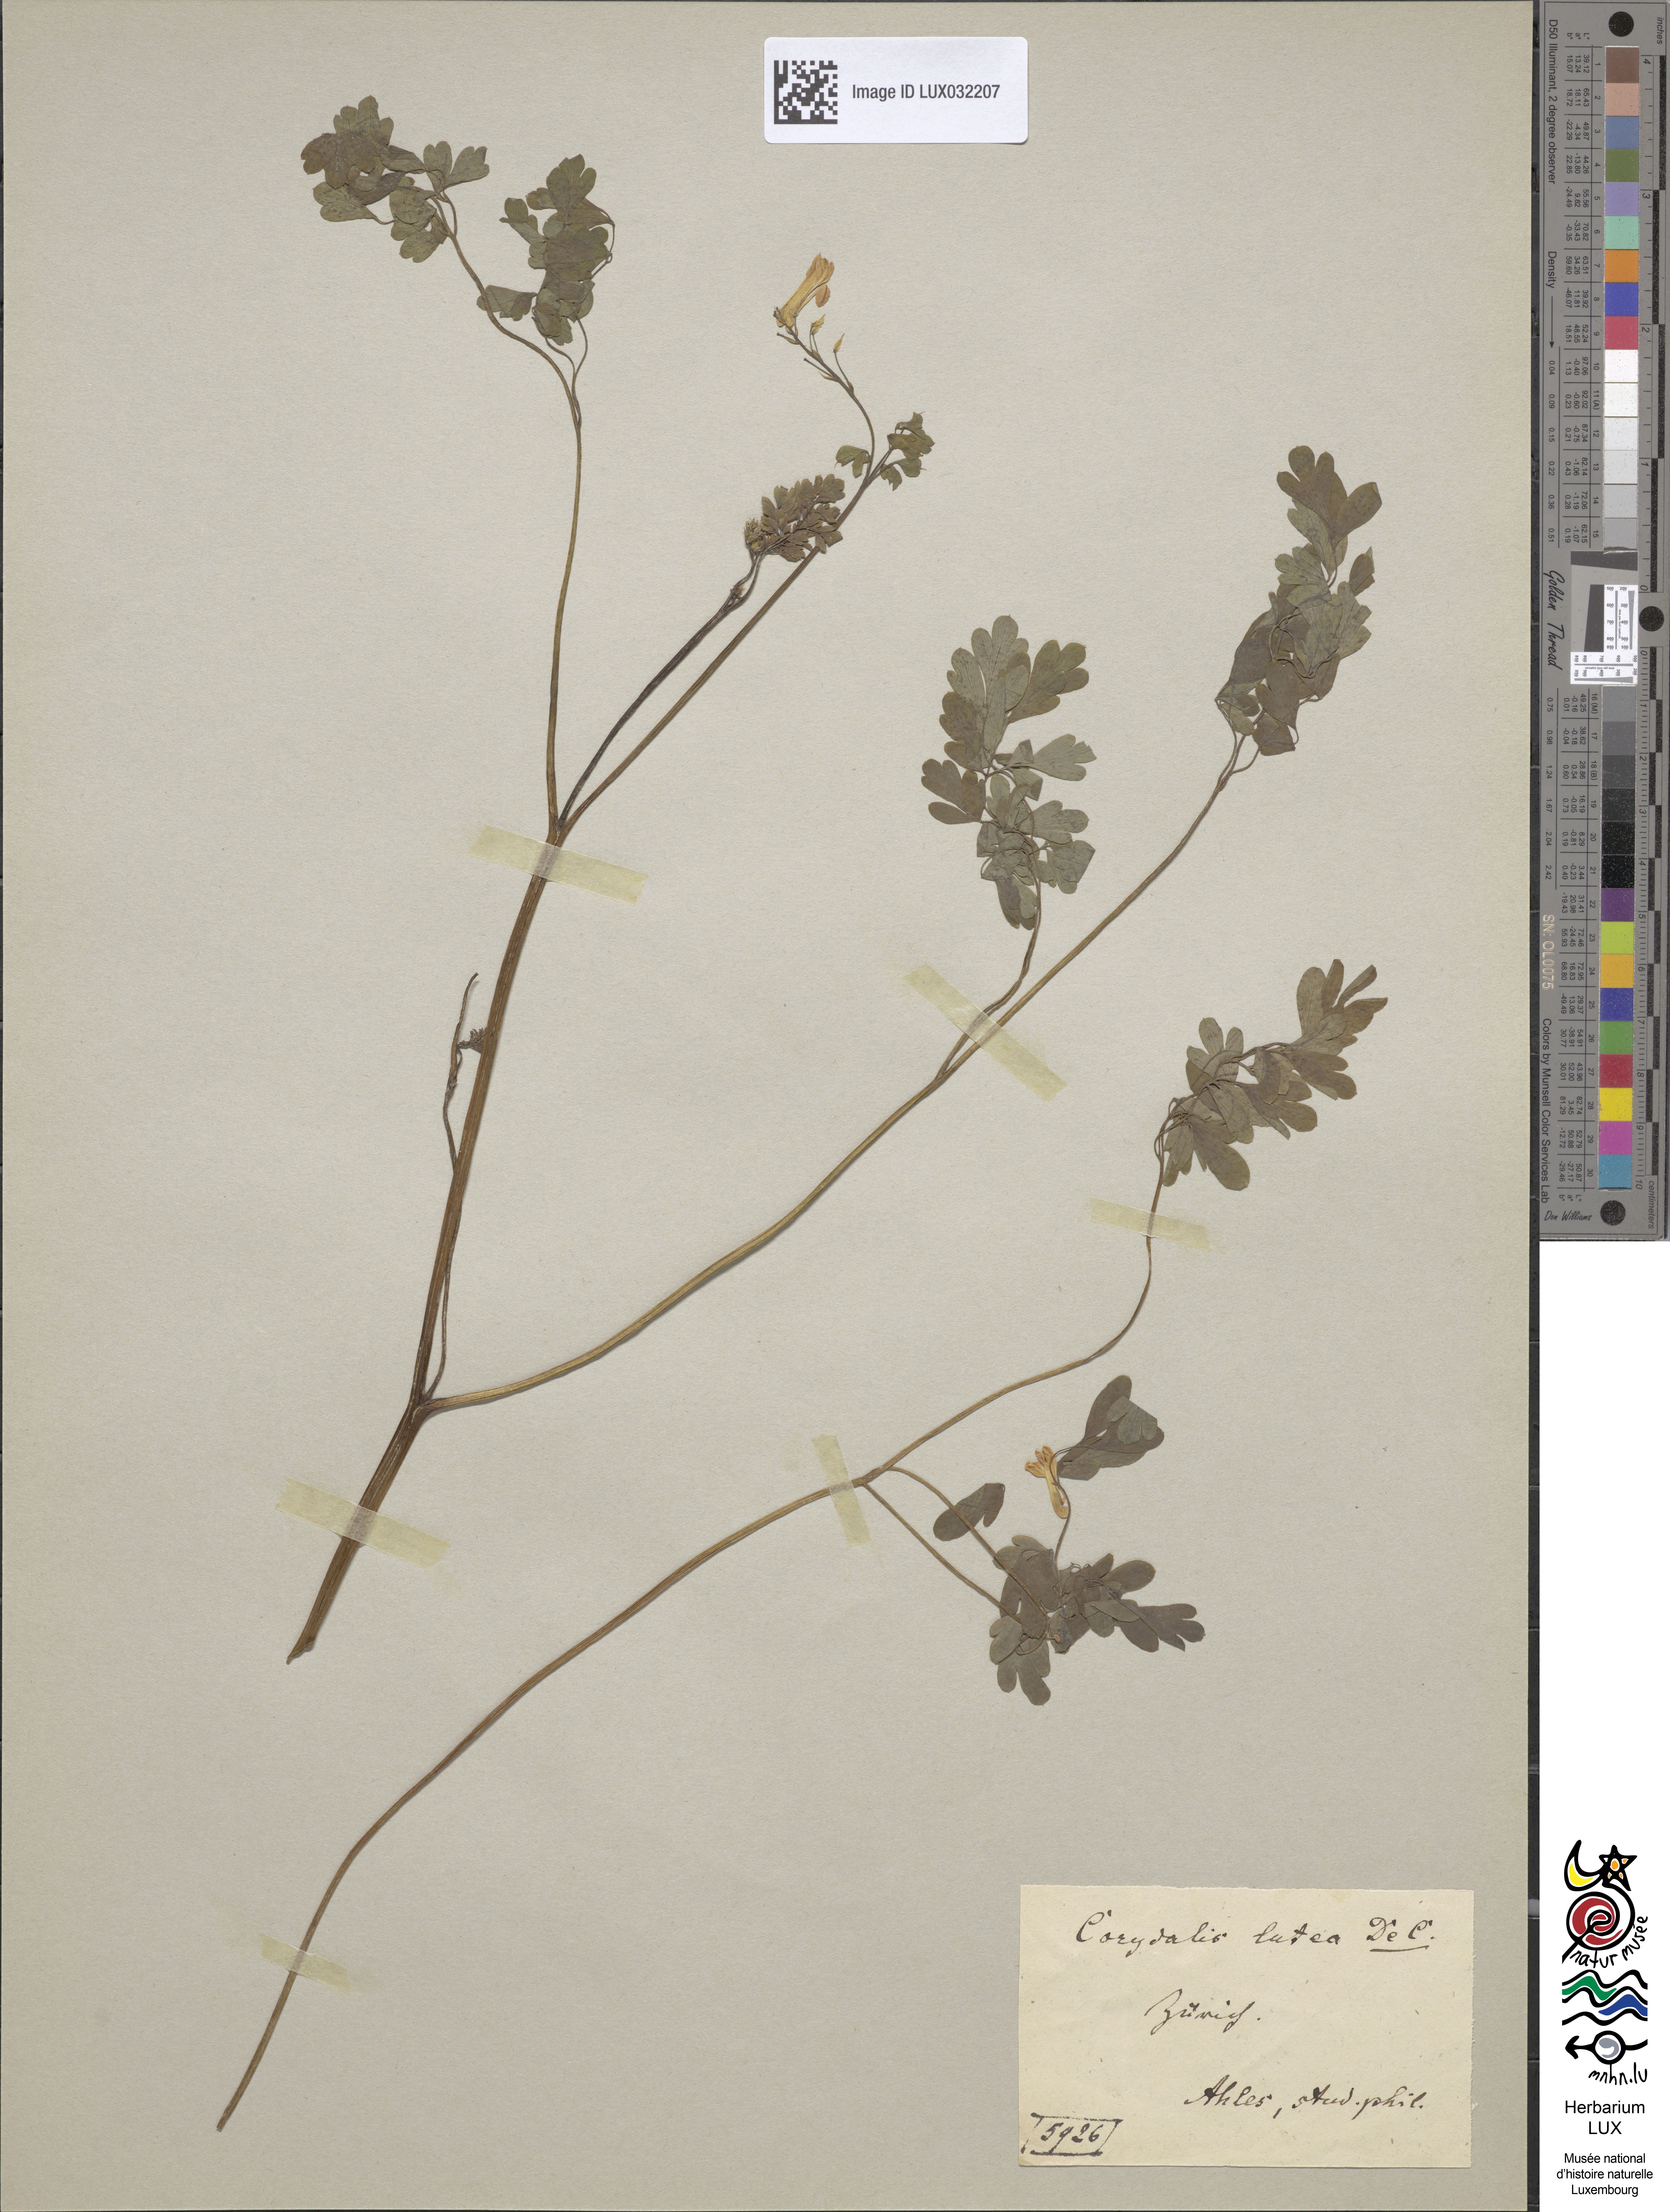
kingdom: Plantae
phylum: Tracheophyta
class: Magnoliopsida
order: Ranunculales
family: Papaveraceae
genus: Pseudofumaria
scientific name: Pseudofumaria lutea
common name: Yellow corydalis
